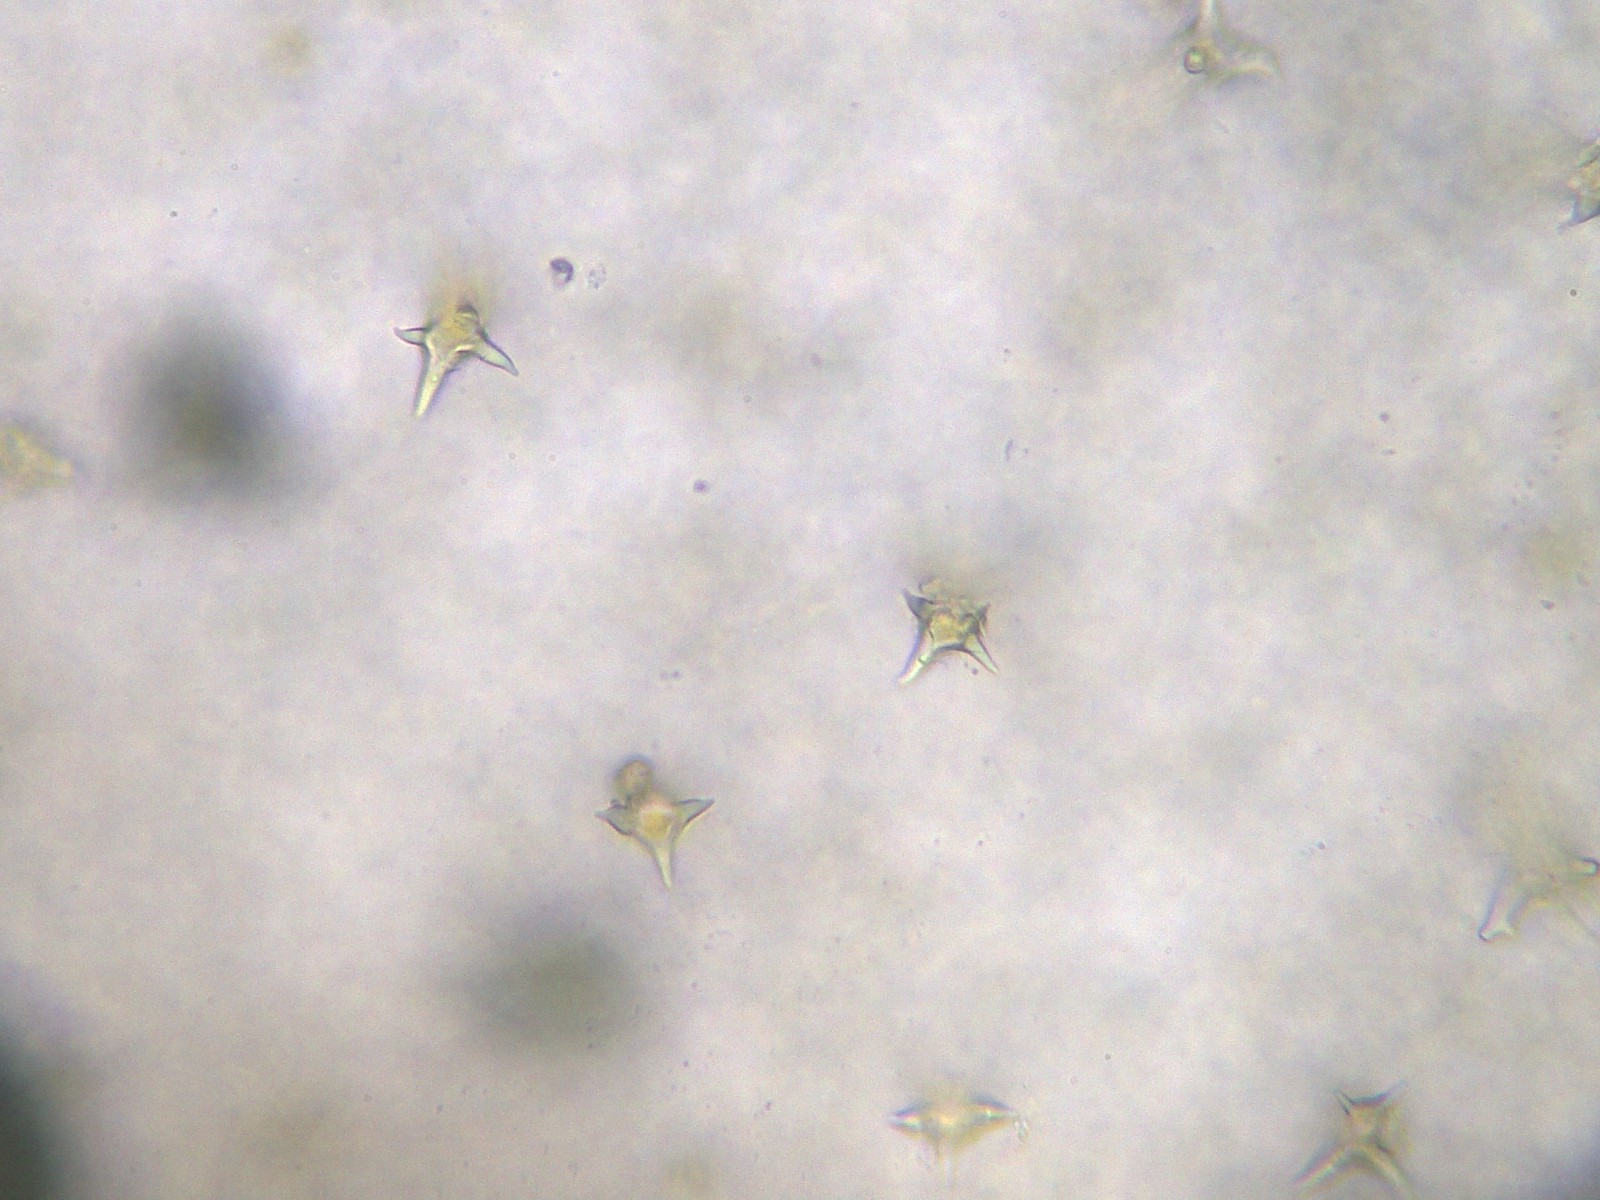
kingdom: Fungi
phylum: Basidiomycota
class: Agaricomycetes
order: Agaricales
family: Pluteaceae
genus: Pluteus
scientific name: Pluteus cervinus
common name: sodfarvet skærmhat
